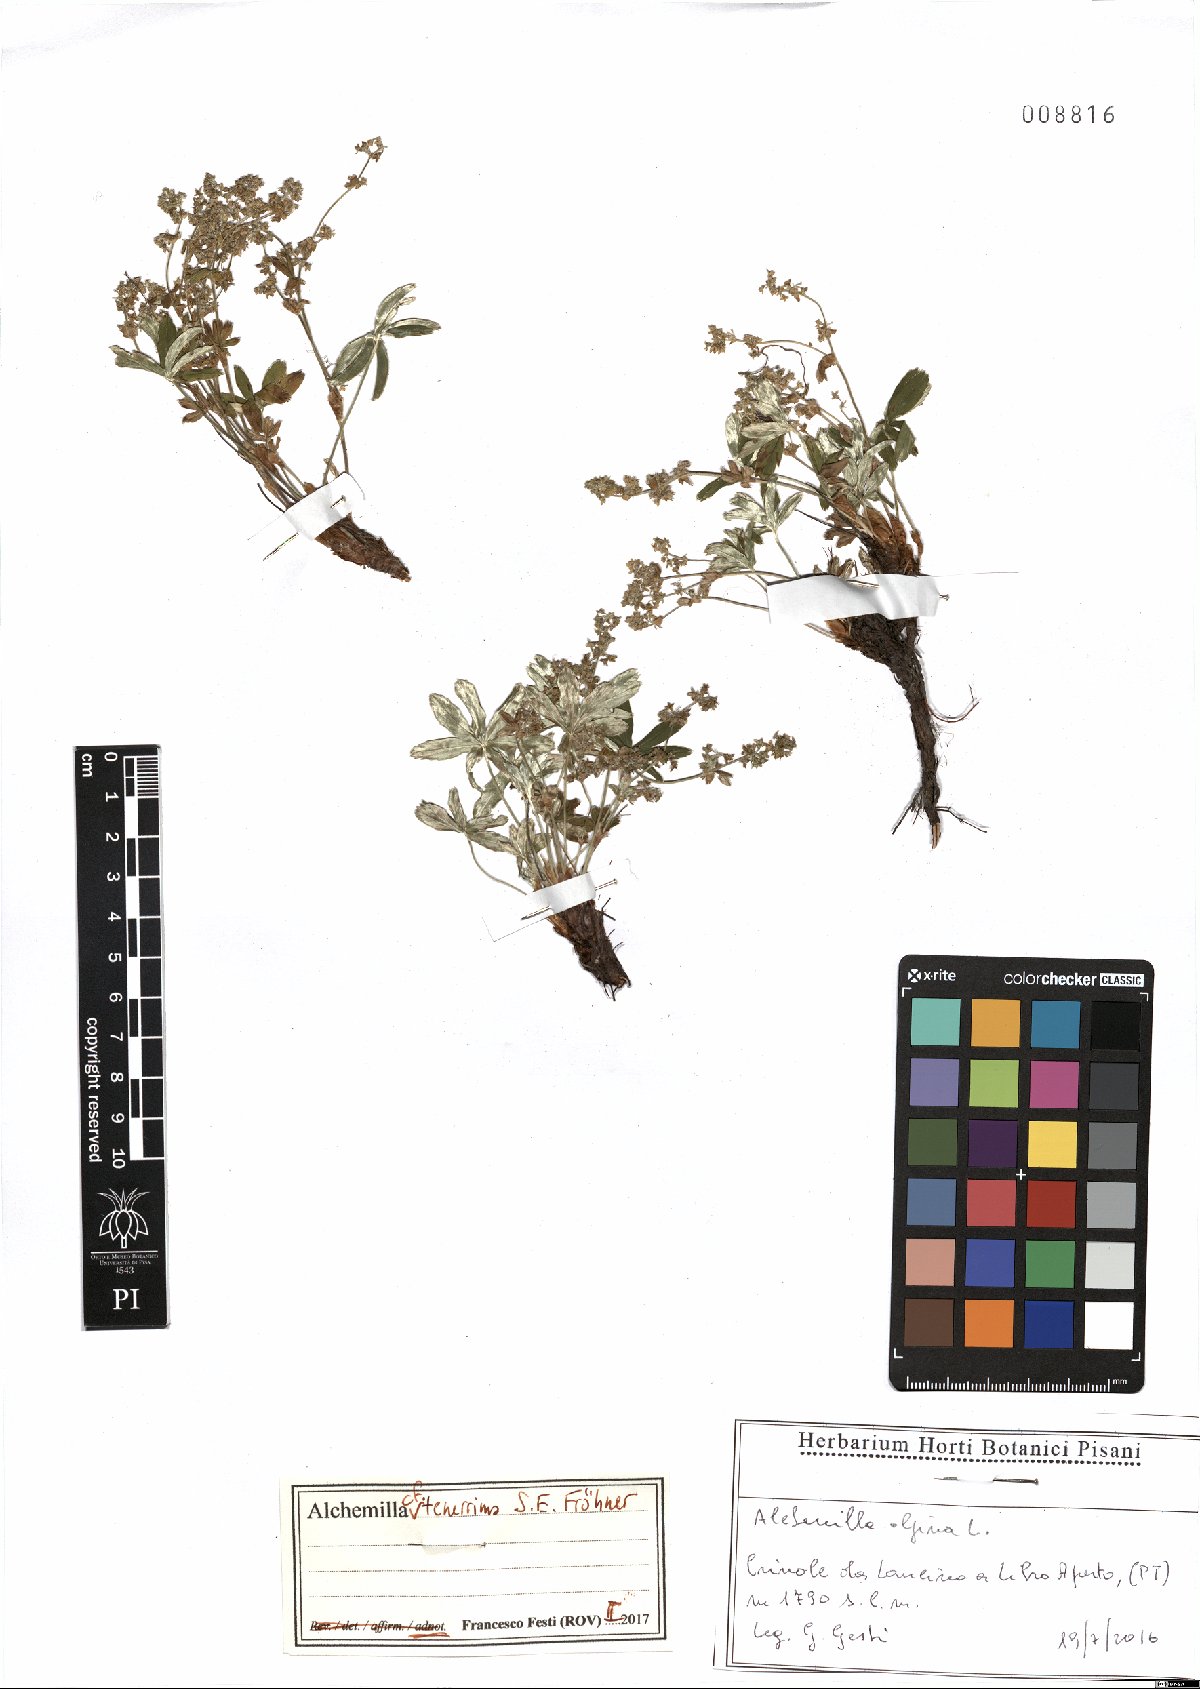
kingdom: Plantae
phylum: Tracheophyta
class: Magnoliopsida
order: Rosales
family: Rosaceae
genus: Alchemilla
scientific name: Alchemilla tenerrima
